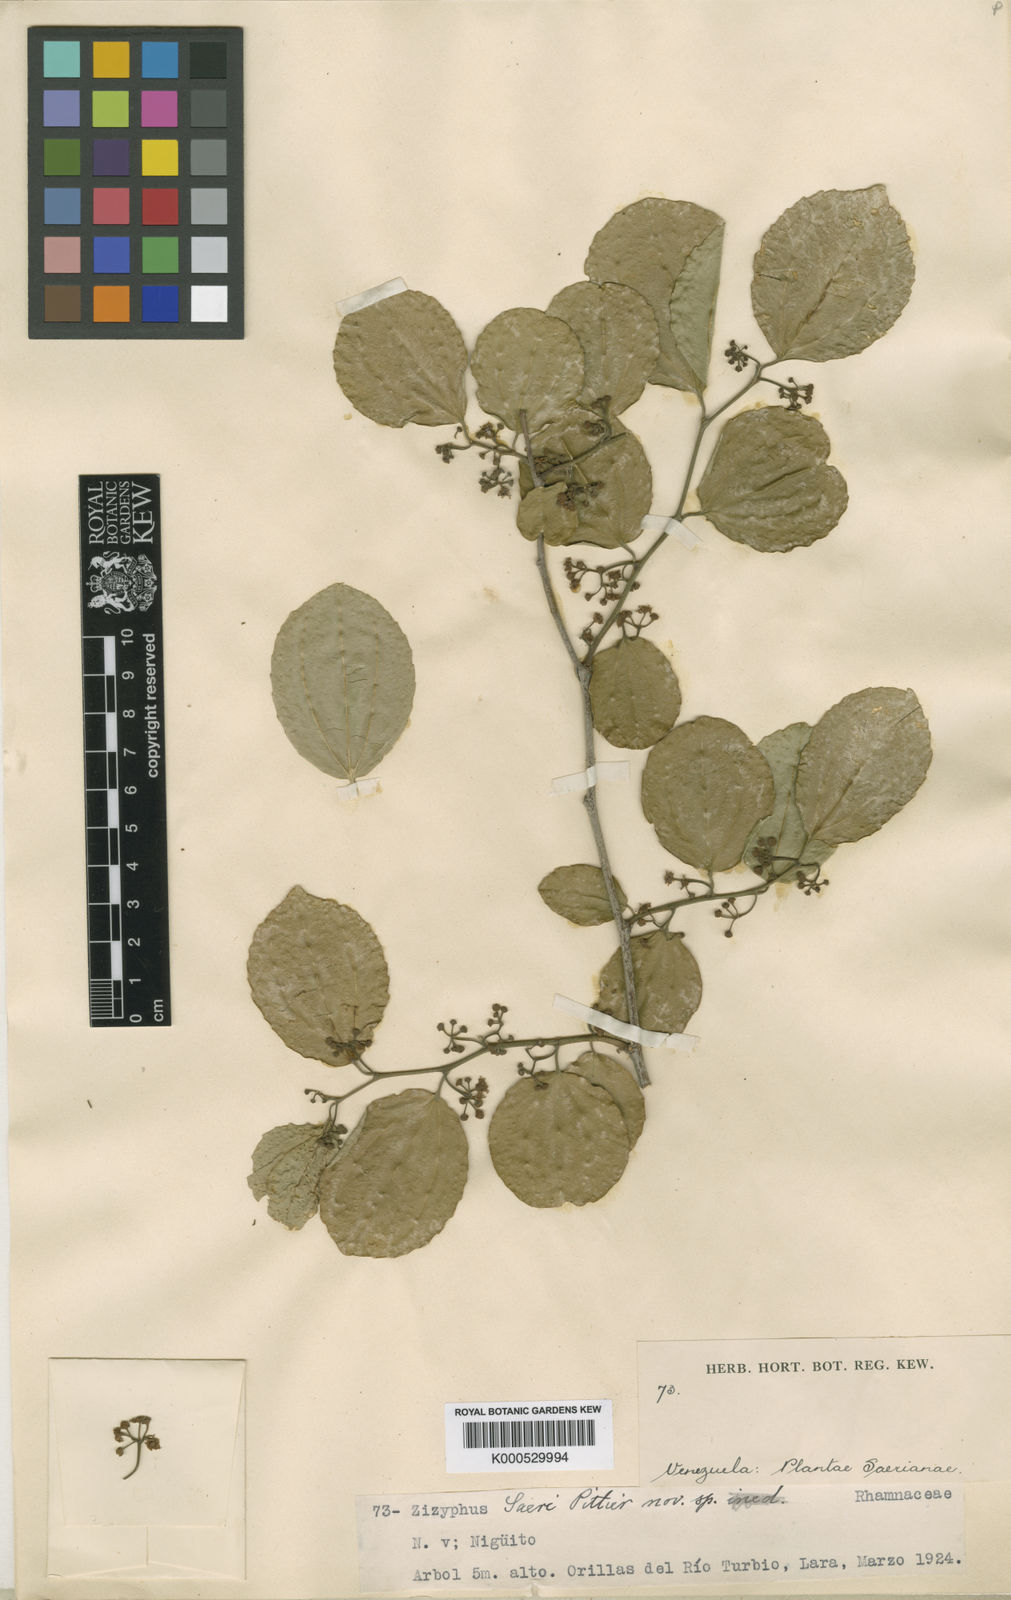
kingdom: Plantae
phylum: Tracheophyta
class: Magnoliopsida
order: Rosales
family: Rhamnaceae
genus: Sarcomphalus
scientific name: Sarcomphalus saeri
